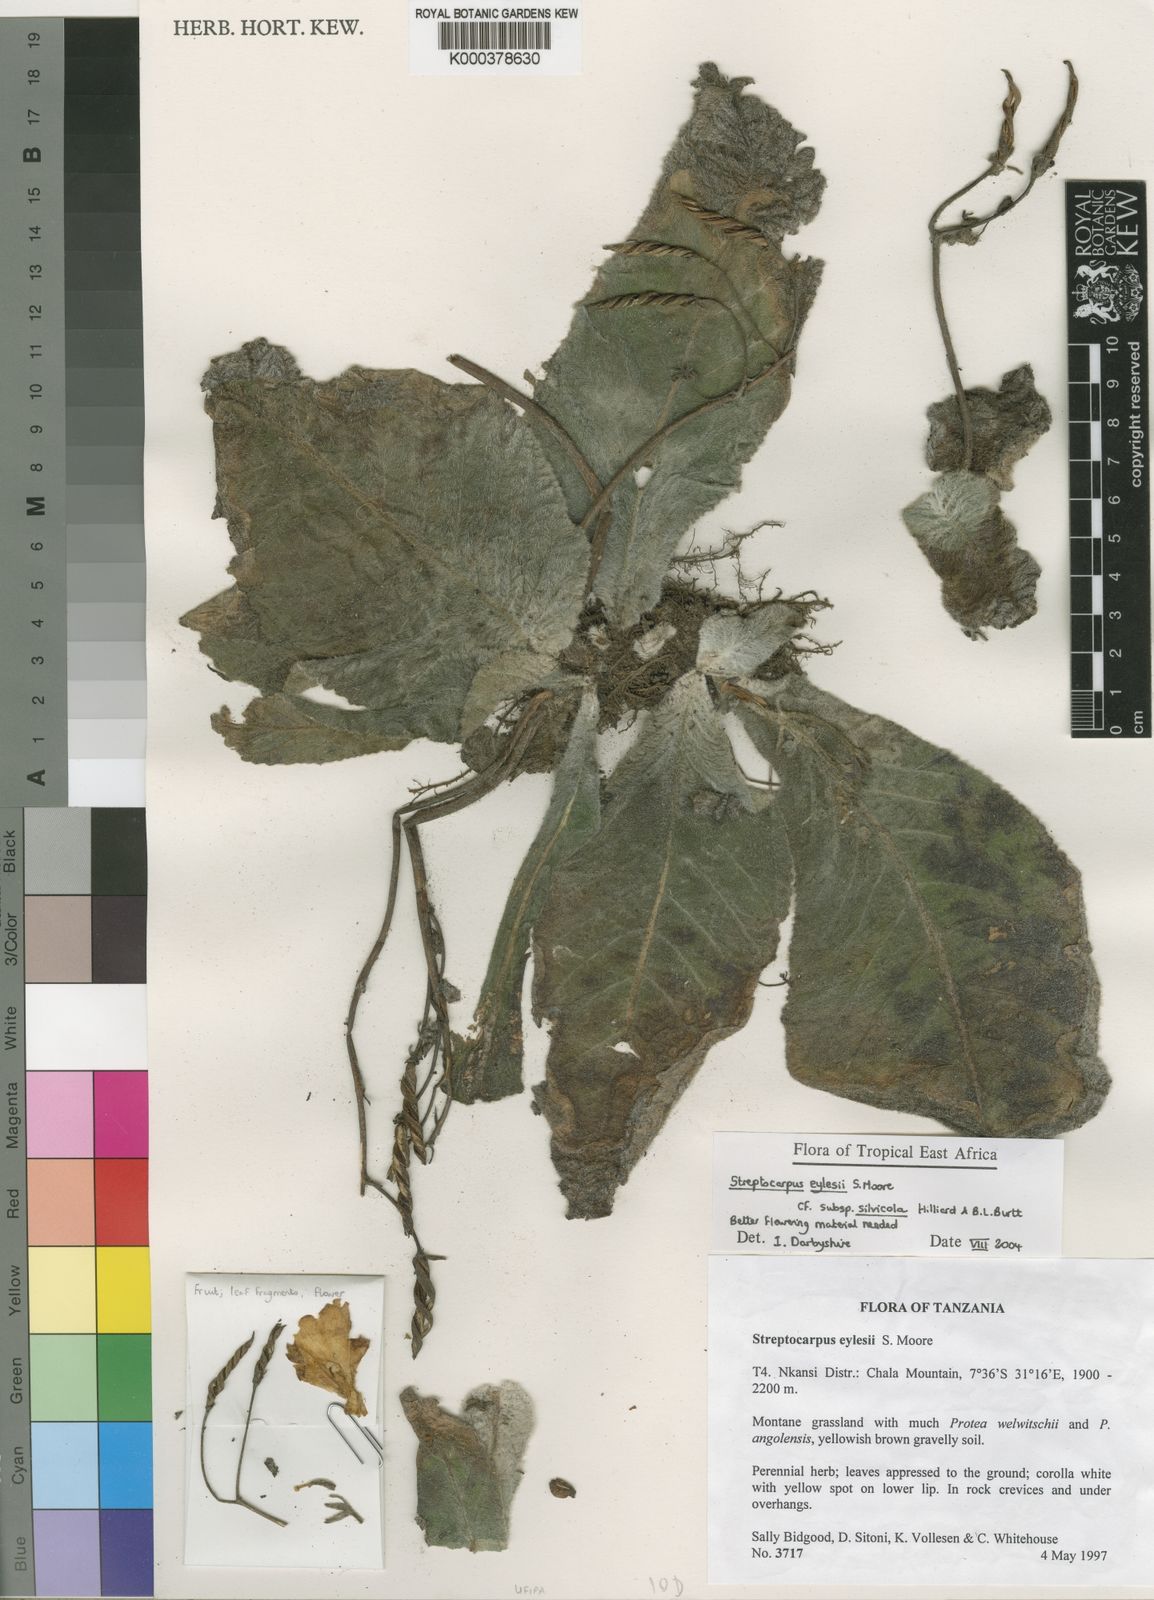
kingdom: Plantae
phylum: Tracheophyta
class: Magnoliopsida
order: Lamiales
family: Gesneriaceae
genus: Streptocarpus
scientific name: Streptocarpus eylesii
